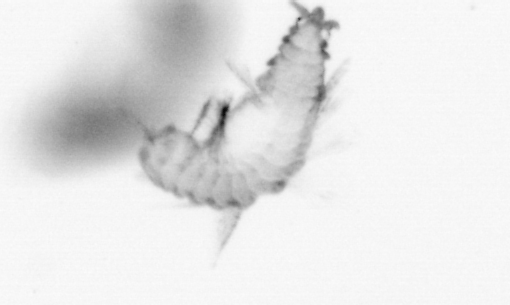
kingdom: Animalia
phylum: Annelida
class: Polychaeta
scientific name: Polychaeta
